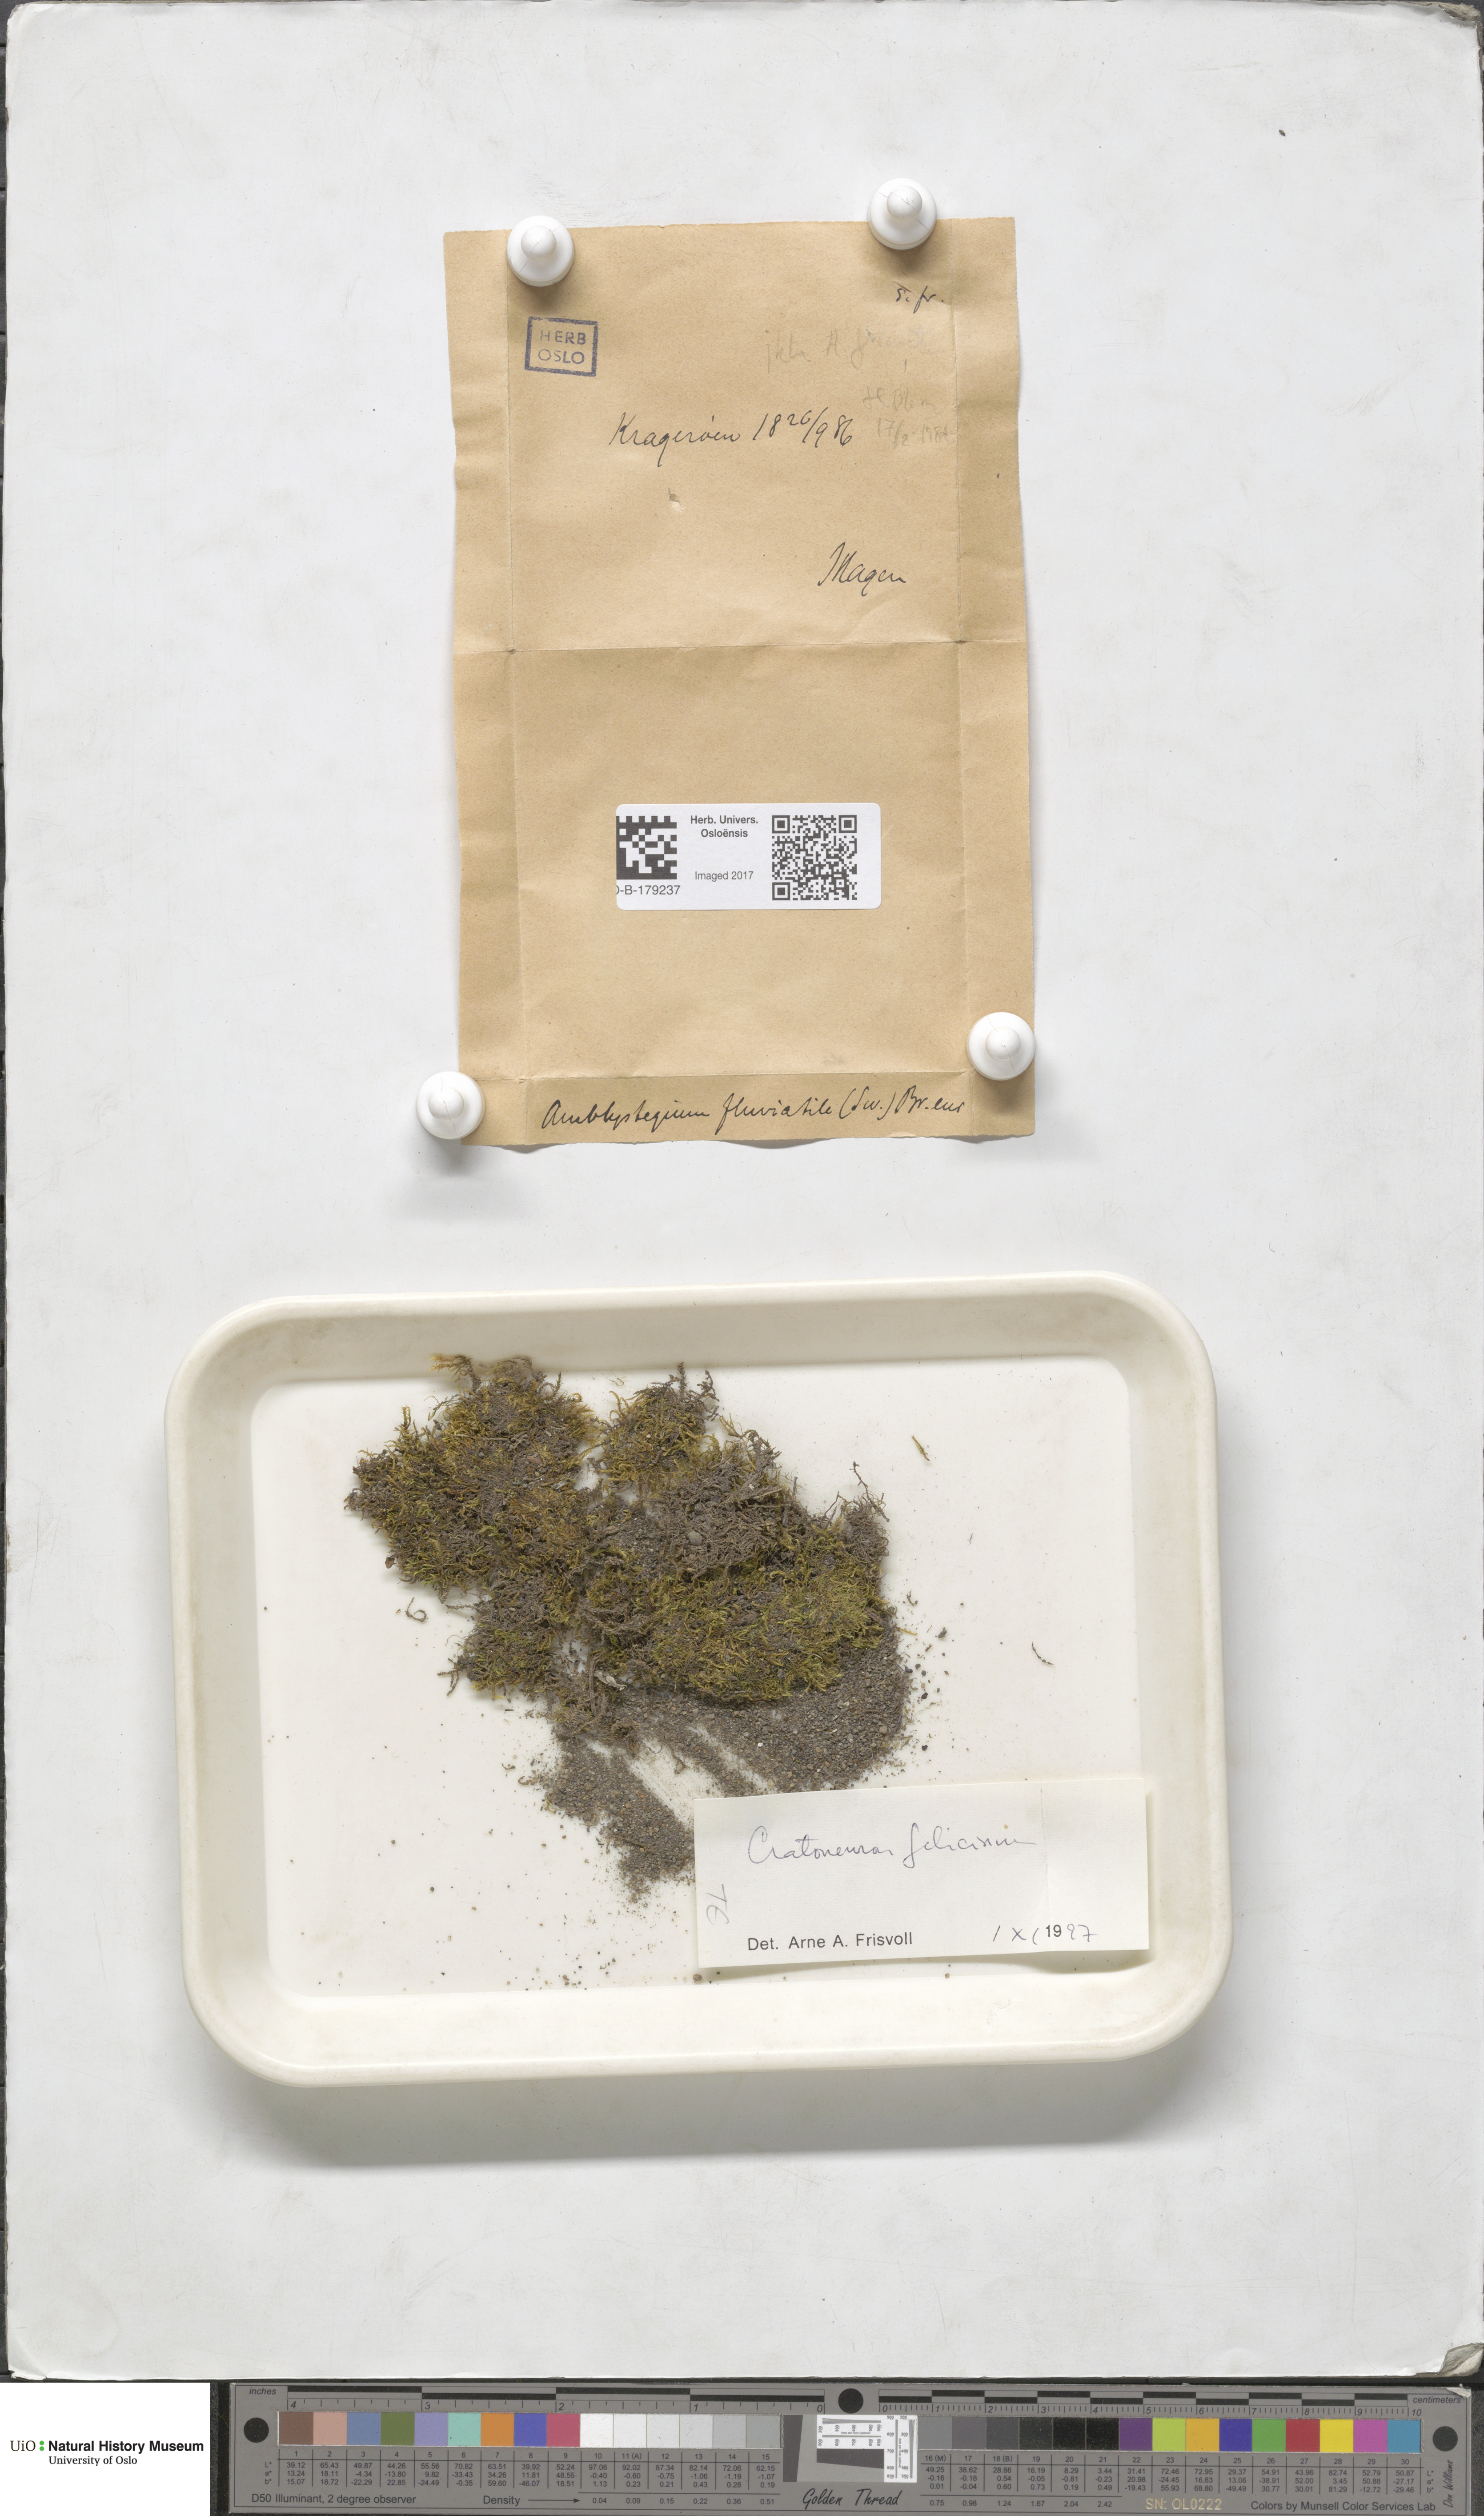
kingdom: Plantae
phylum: Bryophyta
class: Bryopsida
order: Hypnales
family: Amblystegiaceae
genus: Cratoneuron
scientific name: Cratoneuron filicinum
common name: Fern-leaved hook moss
